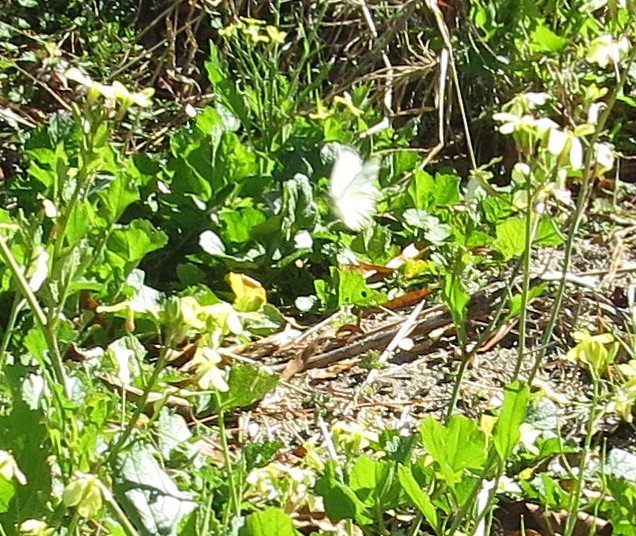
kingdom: Animalia
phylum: Arthropoda
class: Insecta
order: Lepidoptera
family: Pieridae
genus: Pieris
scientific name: Pieris rapae
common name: Cabbage White
